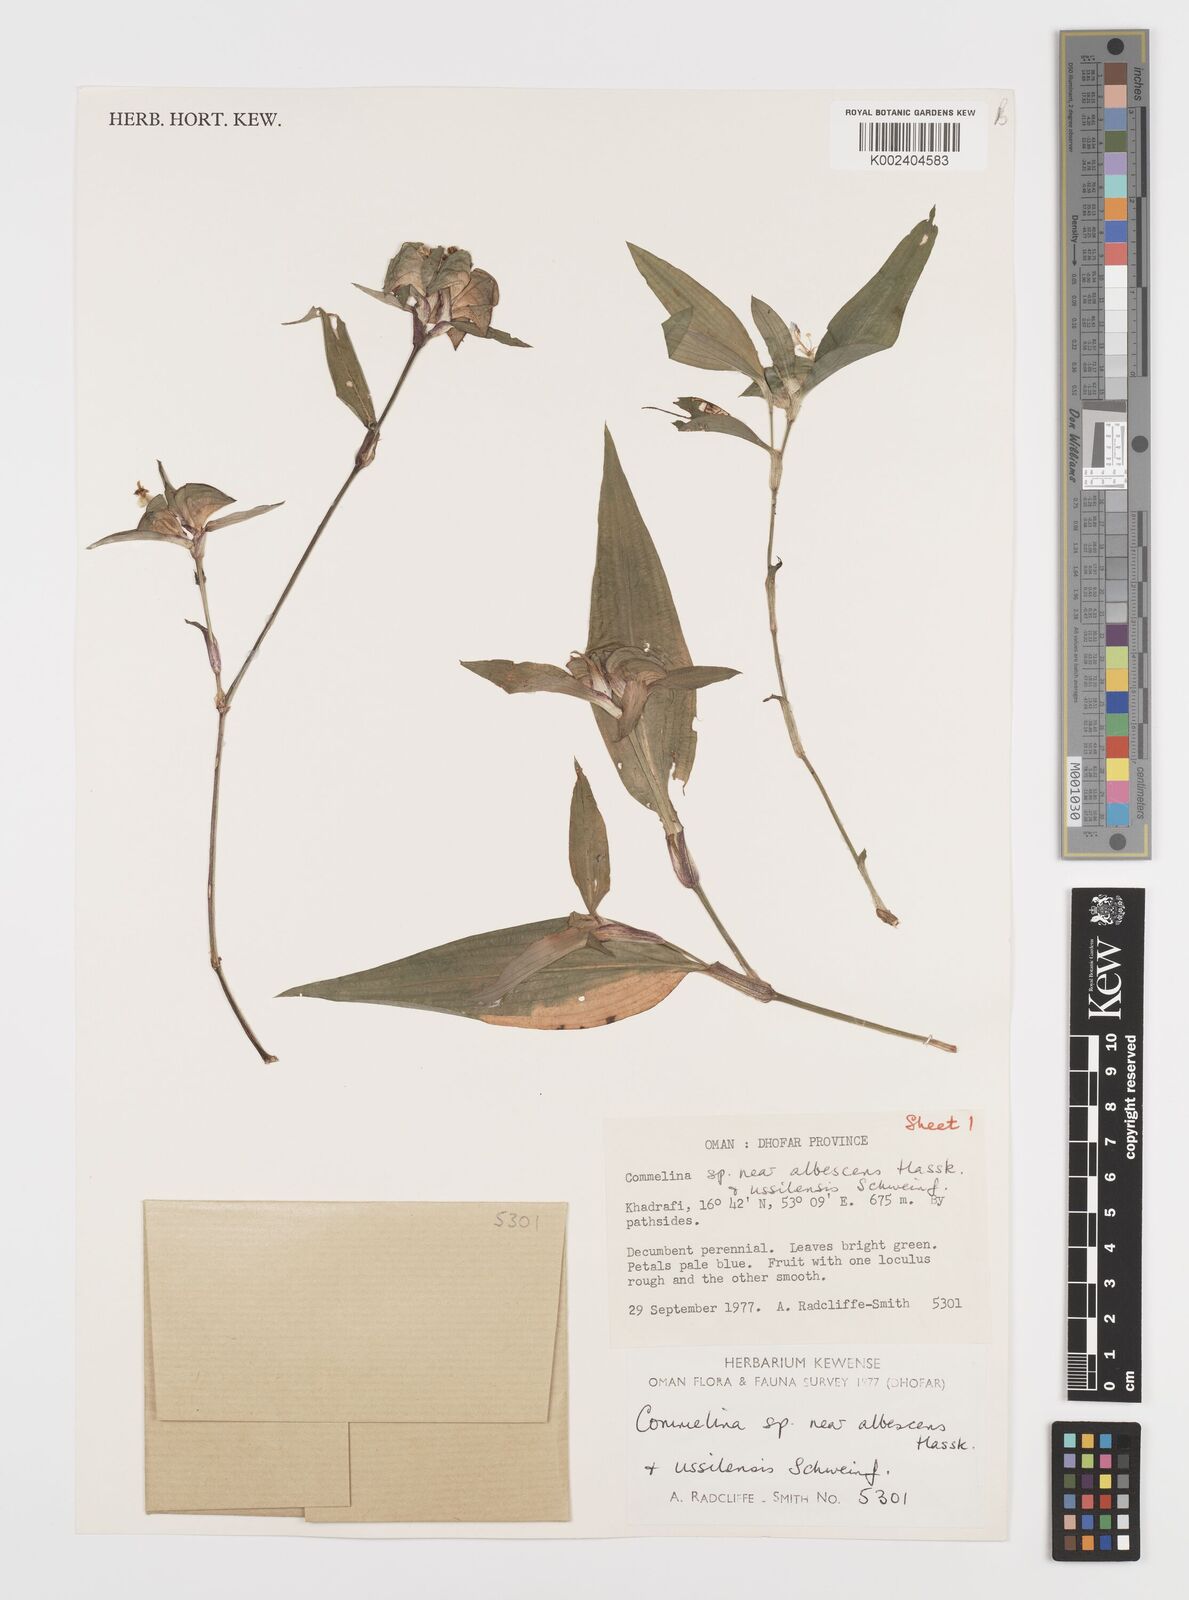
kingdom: Plantae
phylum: Tracheophyta
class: Liliopsida
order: Commelinales
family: Commelinaceae
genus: Commelina
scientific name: Commelina albescens
